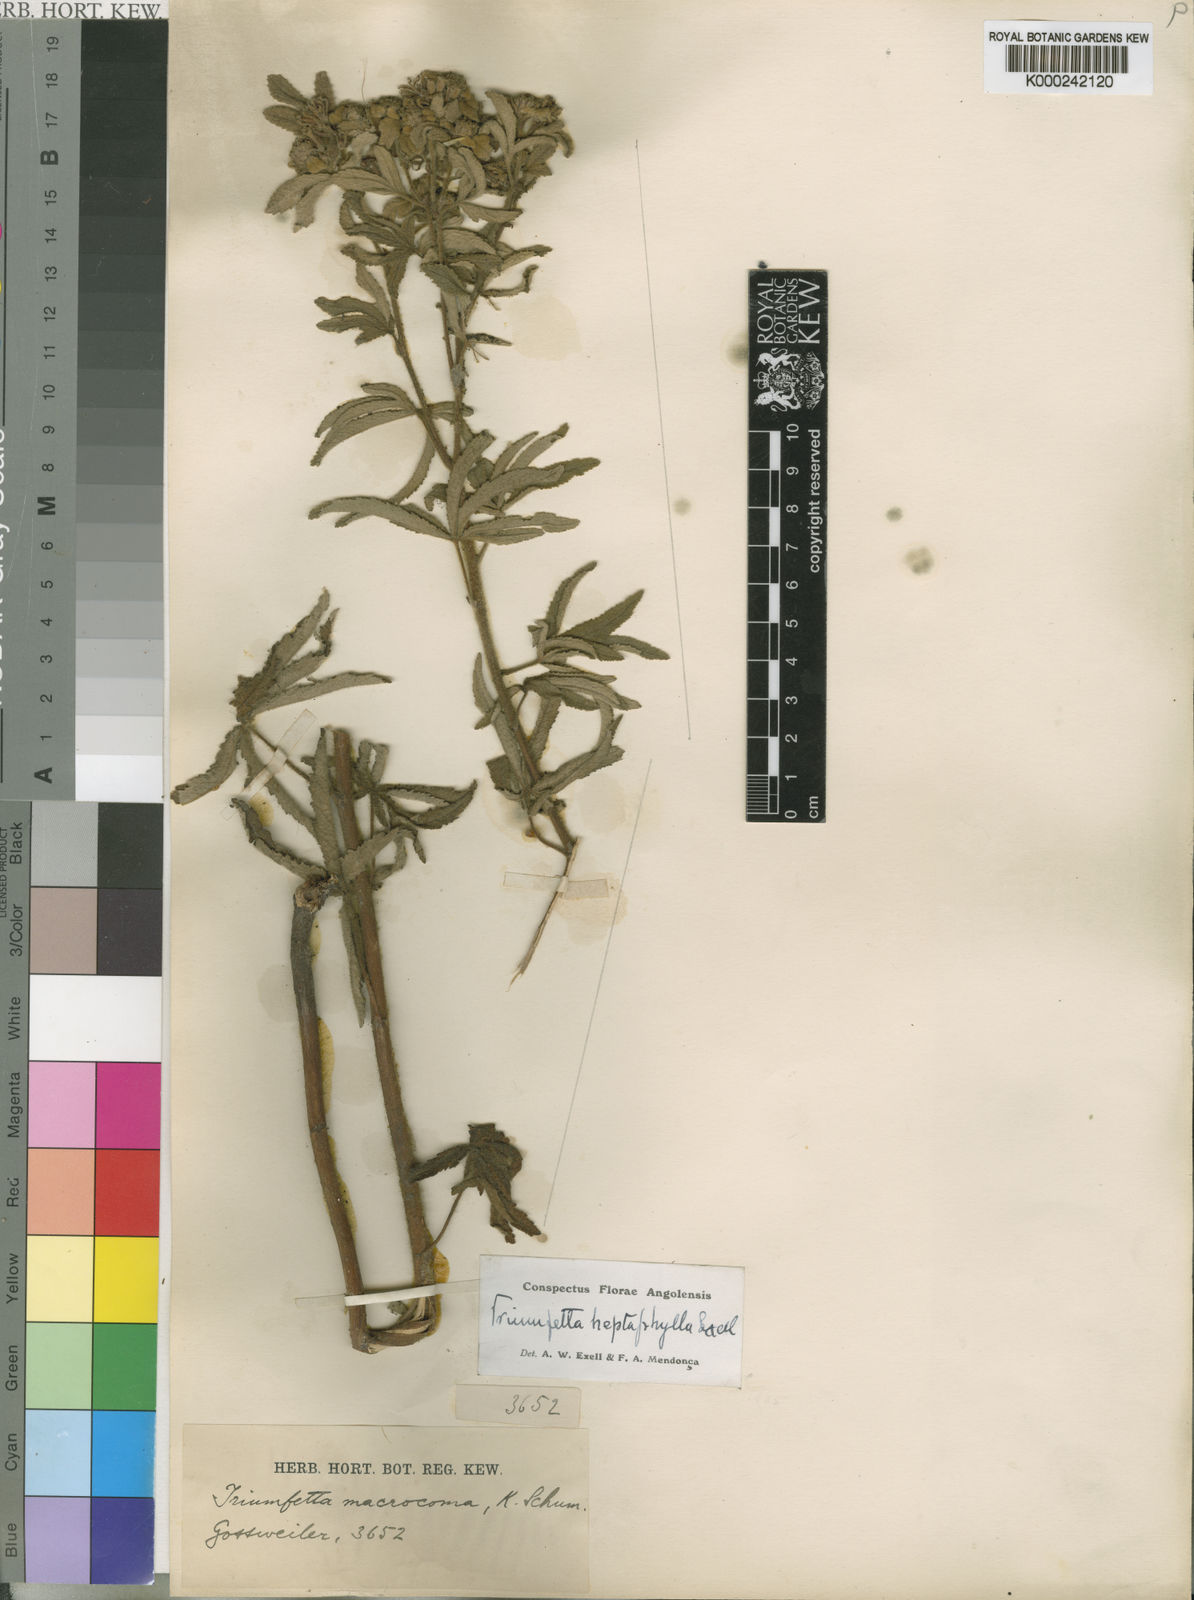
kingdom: Plantae
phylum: Tracheophyta
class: Magnoliopsida
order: Malvales
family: Malvaceae
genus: Triumfetta
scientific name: Triumfetta heptaphylla
